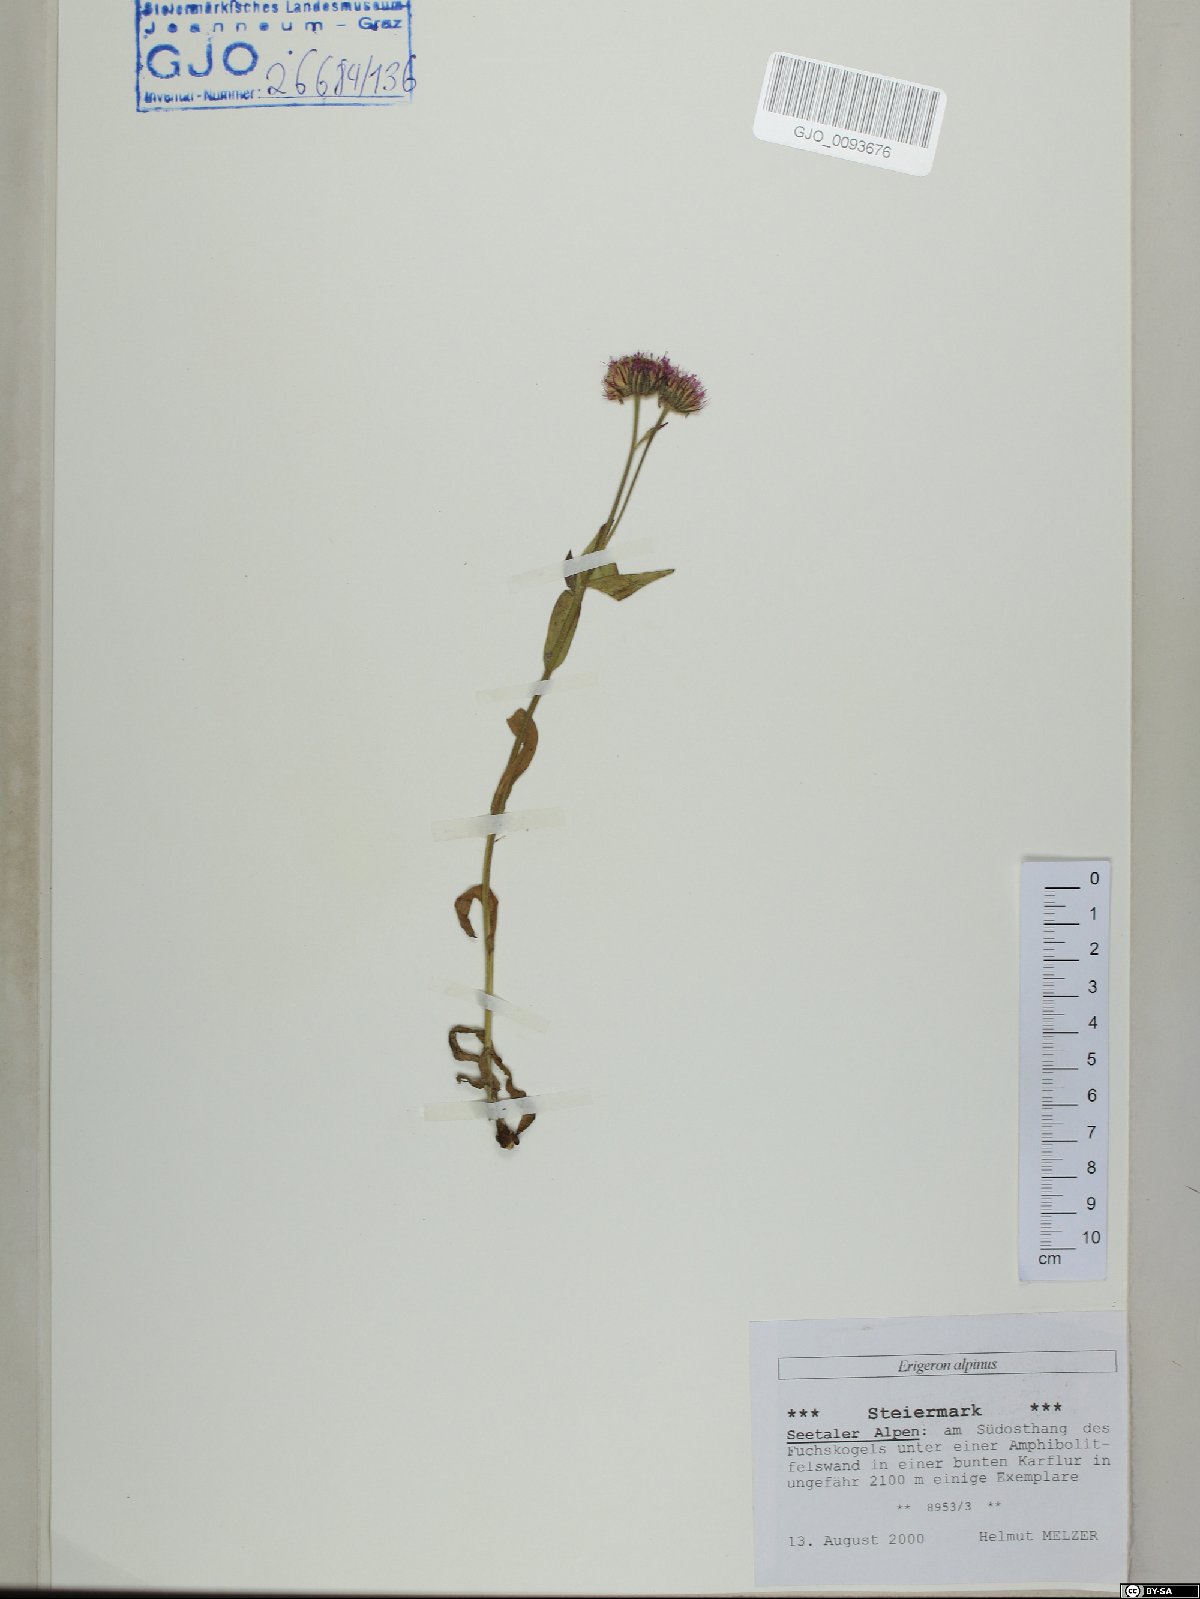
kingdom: Plantae
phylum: Tracheophyta
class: Magnoliopsida
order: Asterales
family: Asteraceae
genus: Erigeron
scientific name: Erigeron alpinus
